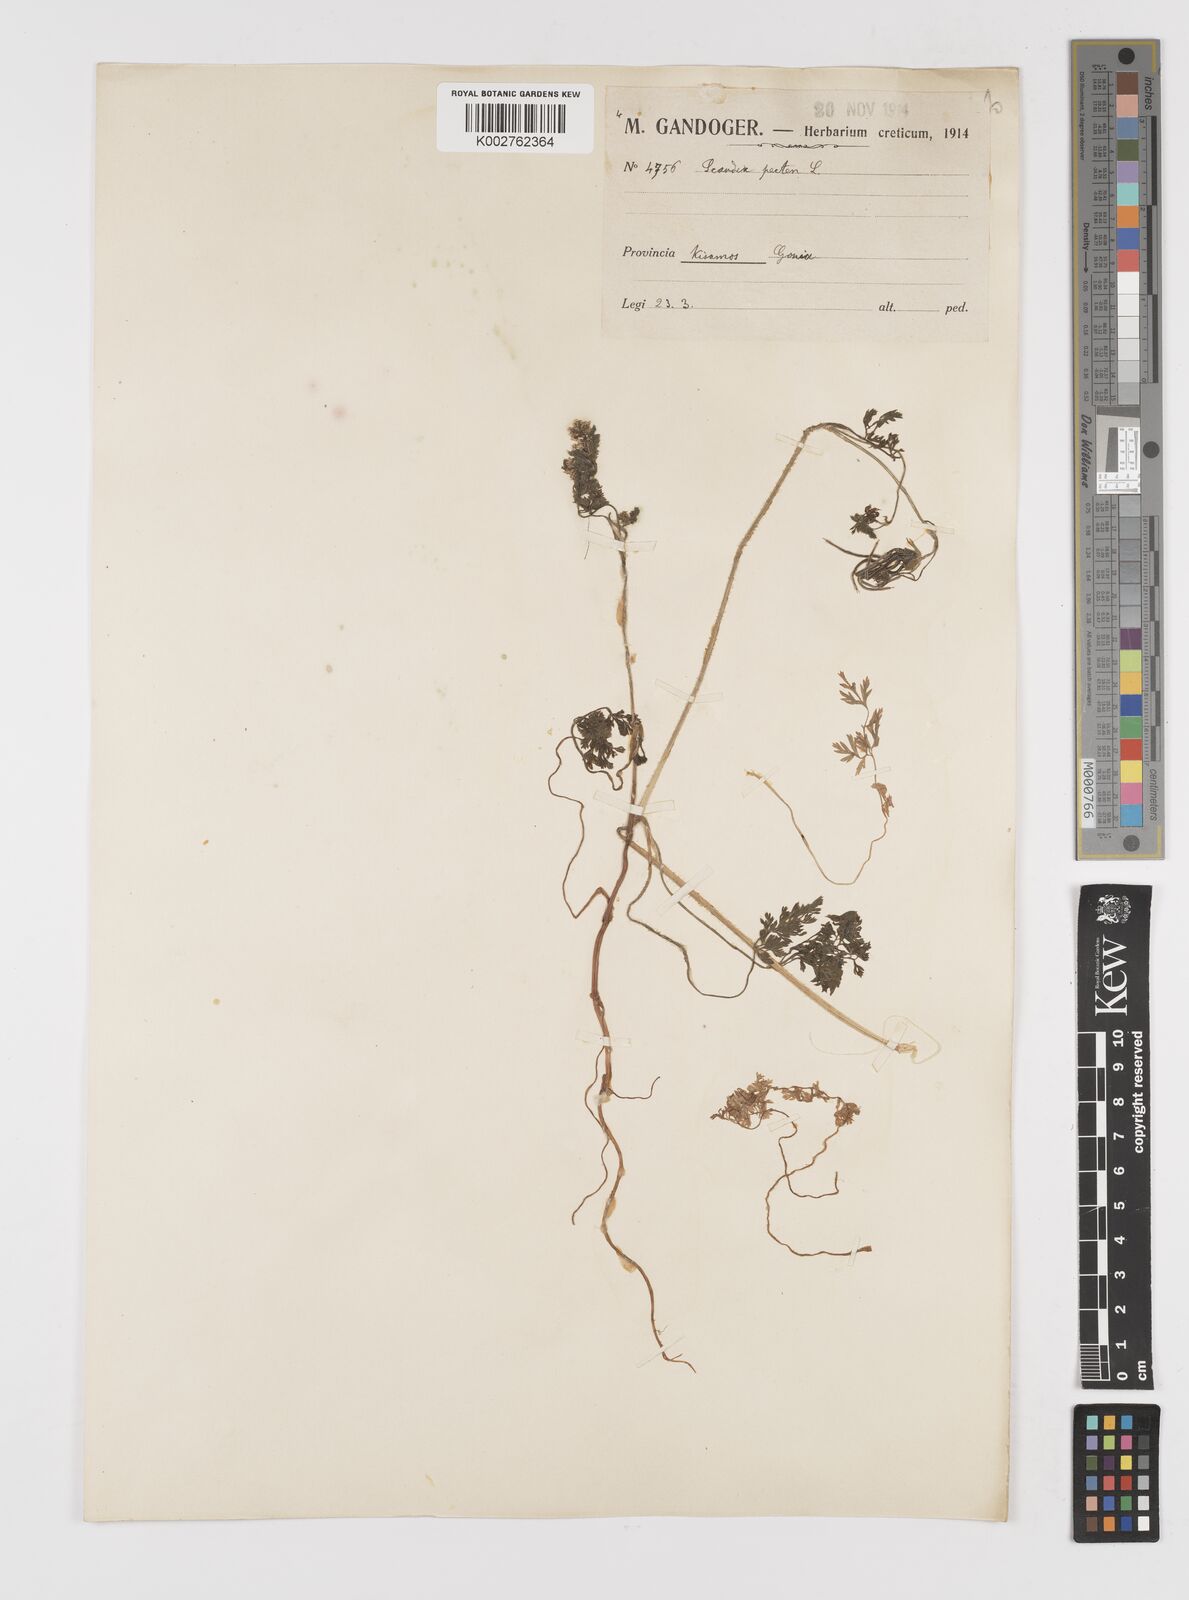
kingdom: Plantae
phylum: Tracheophyta
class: Magnoliopsida
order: Apiales
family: Apiaceae
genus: Scandix
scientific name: Scandix pecten-veneris
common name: Shepherd's-needle
